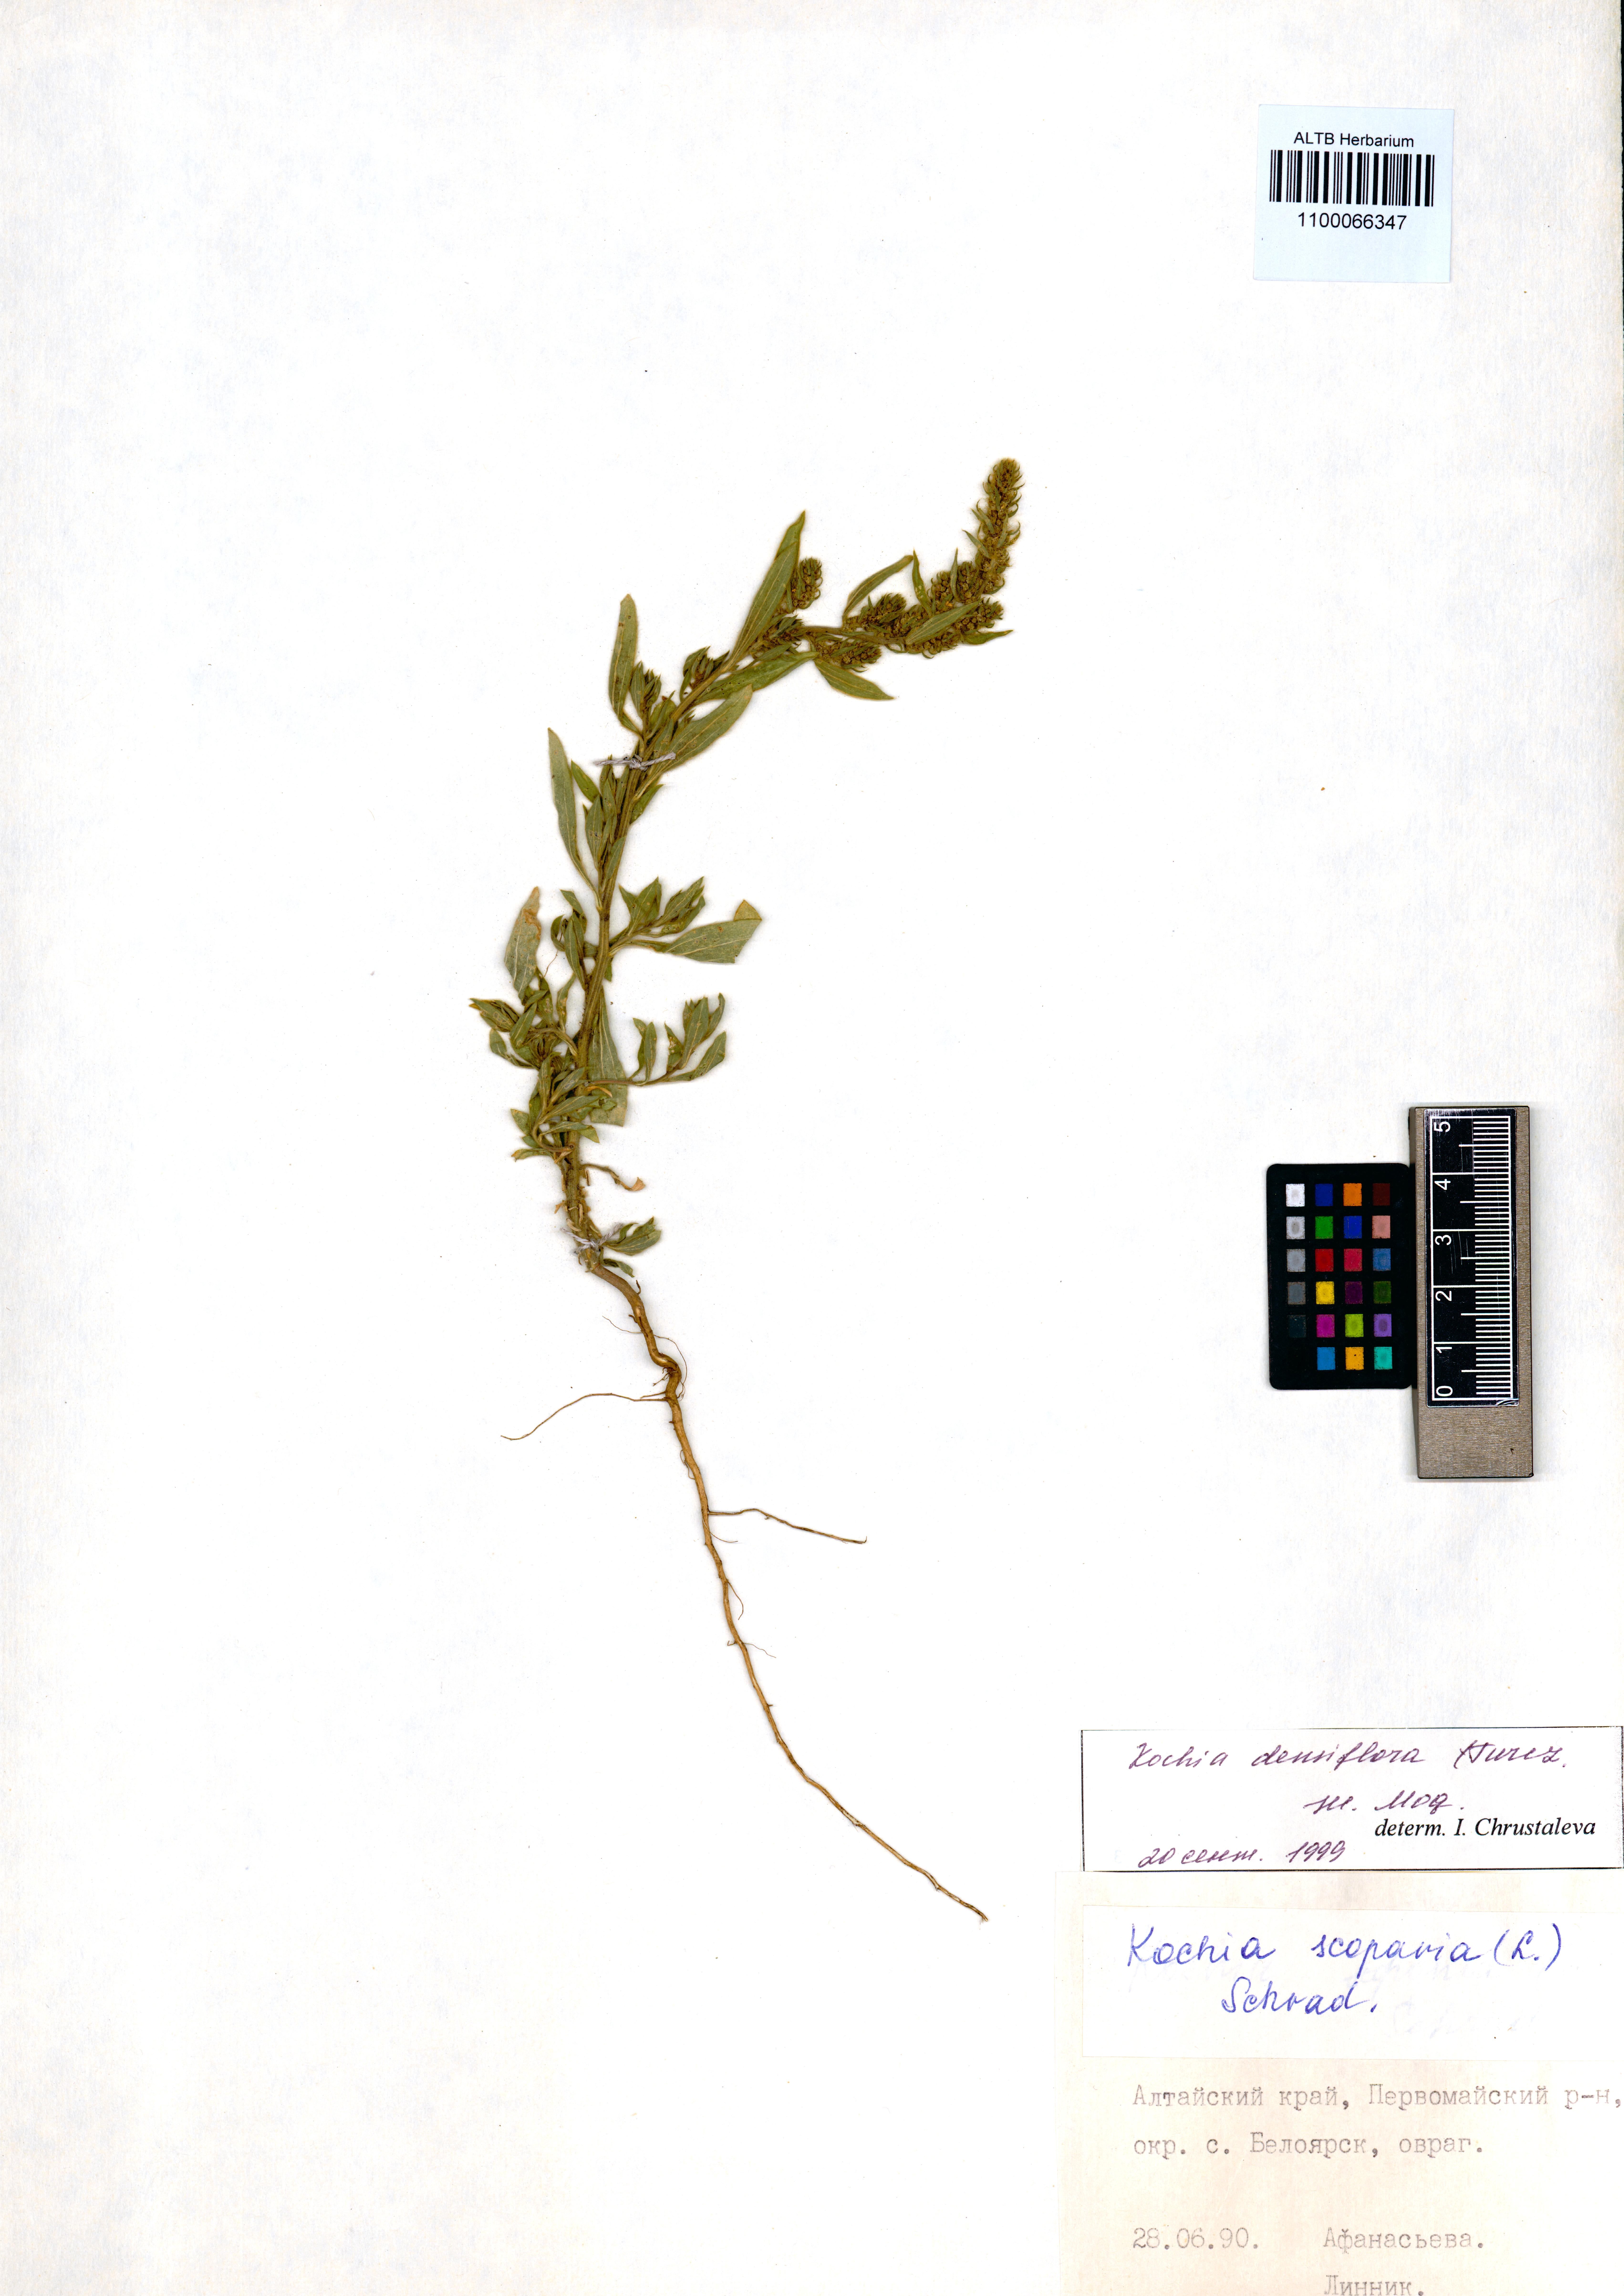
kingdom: Plantae
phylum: Tracheophyta
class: Magnoliopsida
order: Caryophyllales
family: Amaranthaceae
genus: Bassia
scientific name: Bassia scoparia
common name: Belvedere
